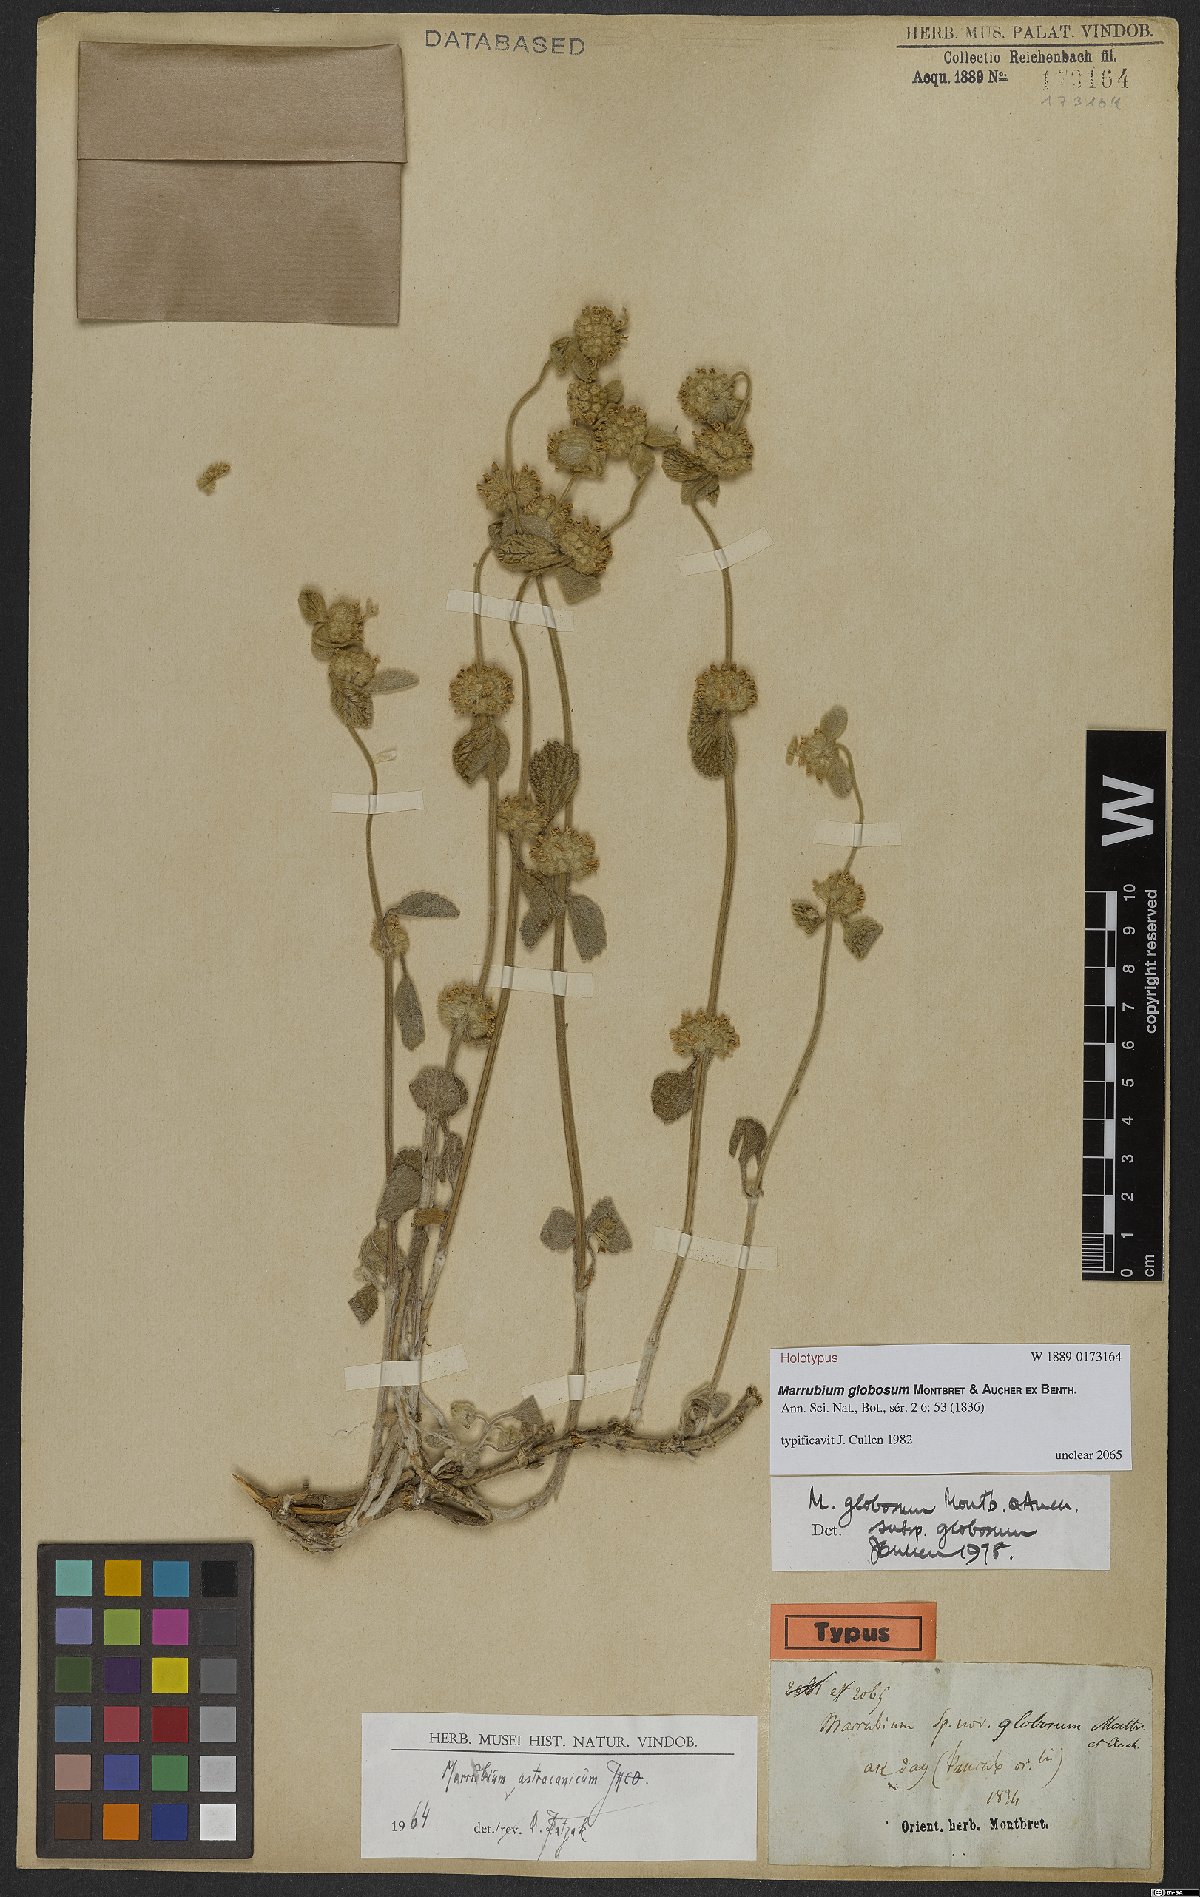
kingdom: Plantae
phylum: Tracheophyta
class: Magnoliopsida
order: Lamiales
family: Lamiaceae
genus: Marrubium
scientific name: Marrubium globosum
